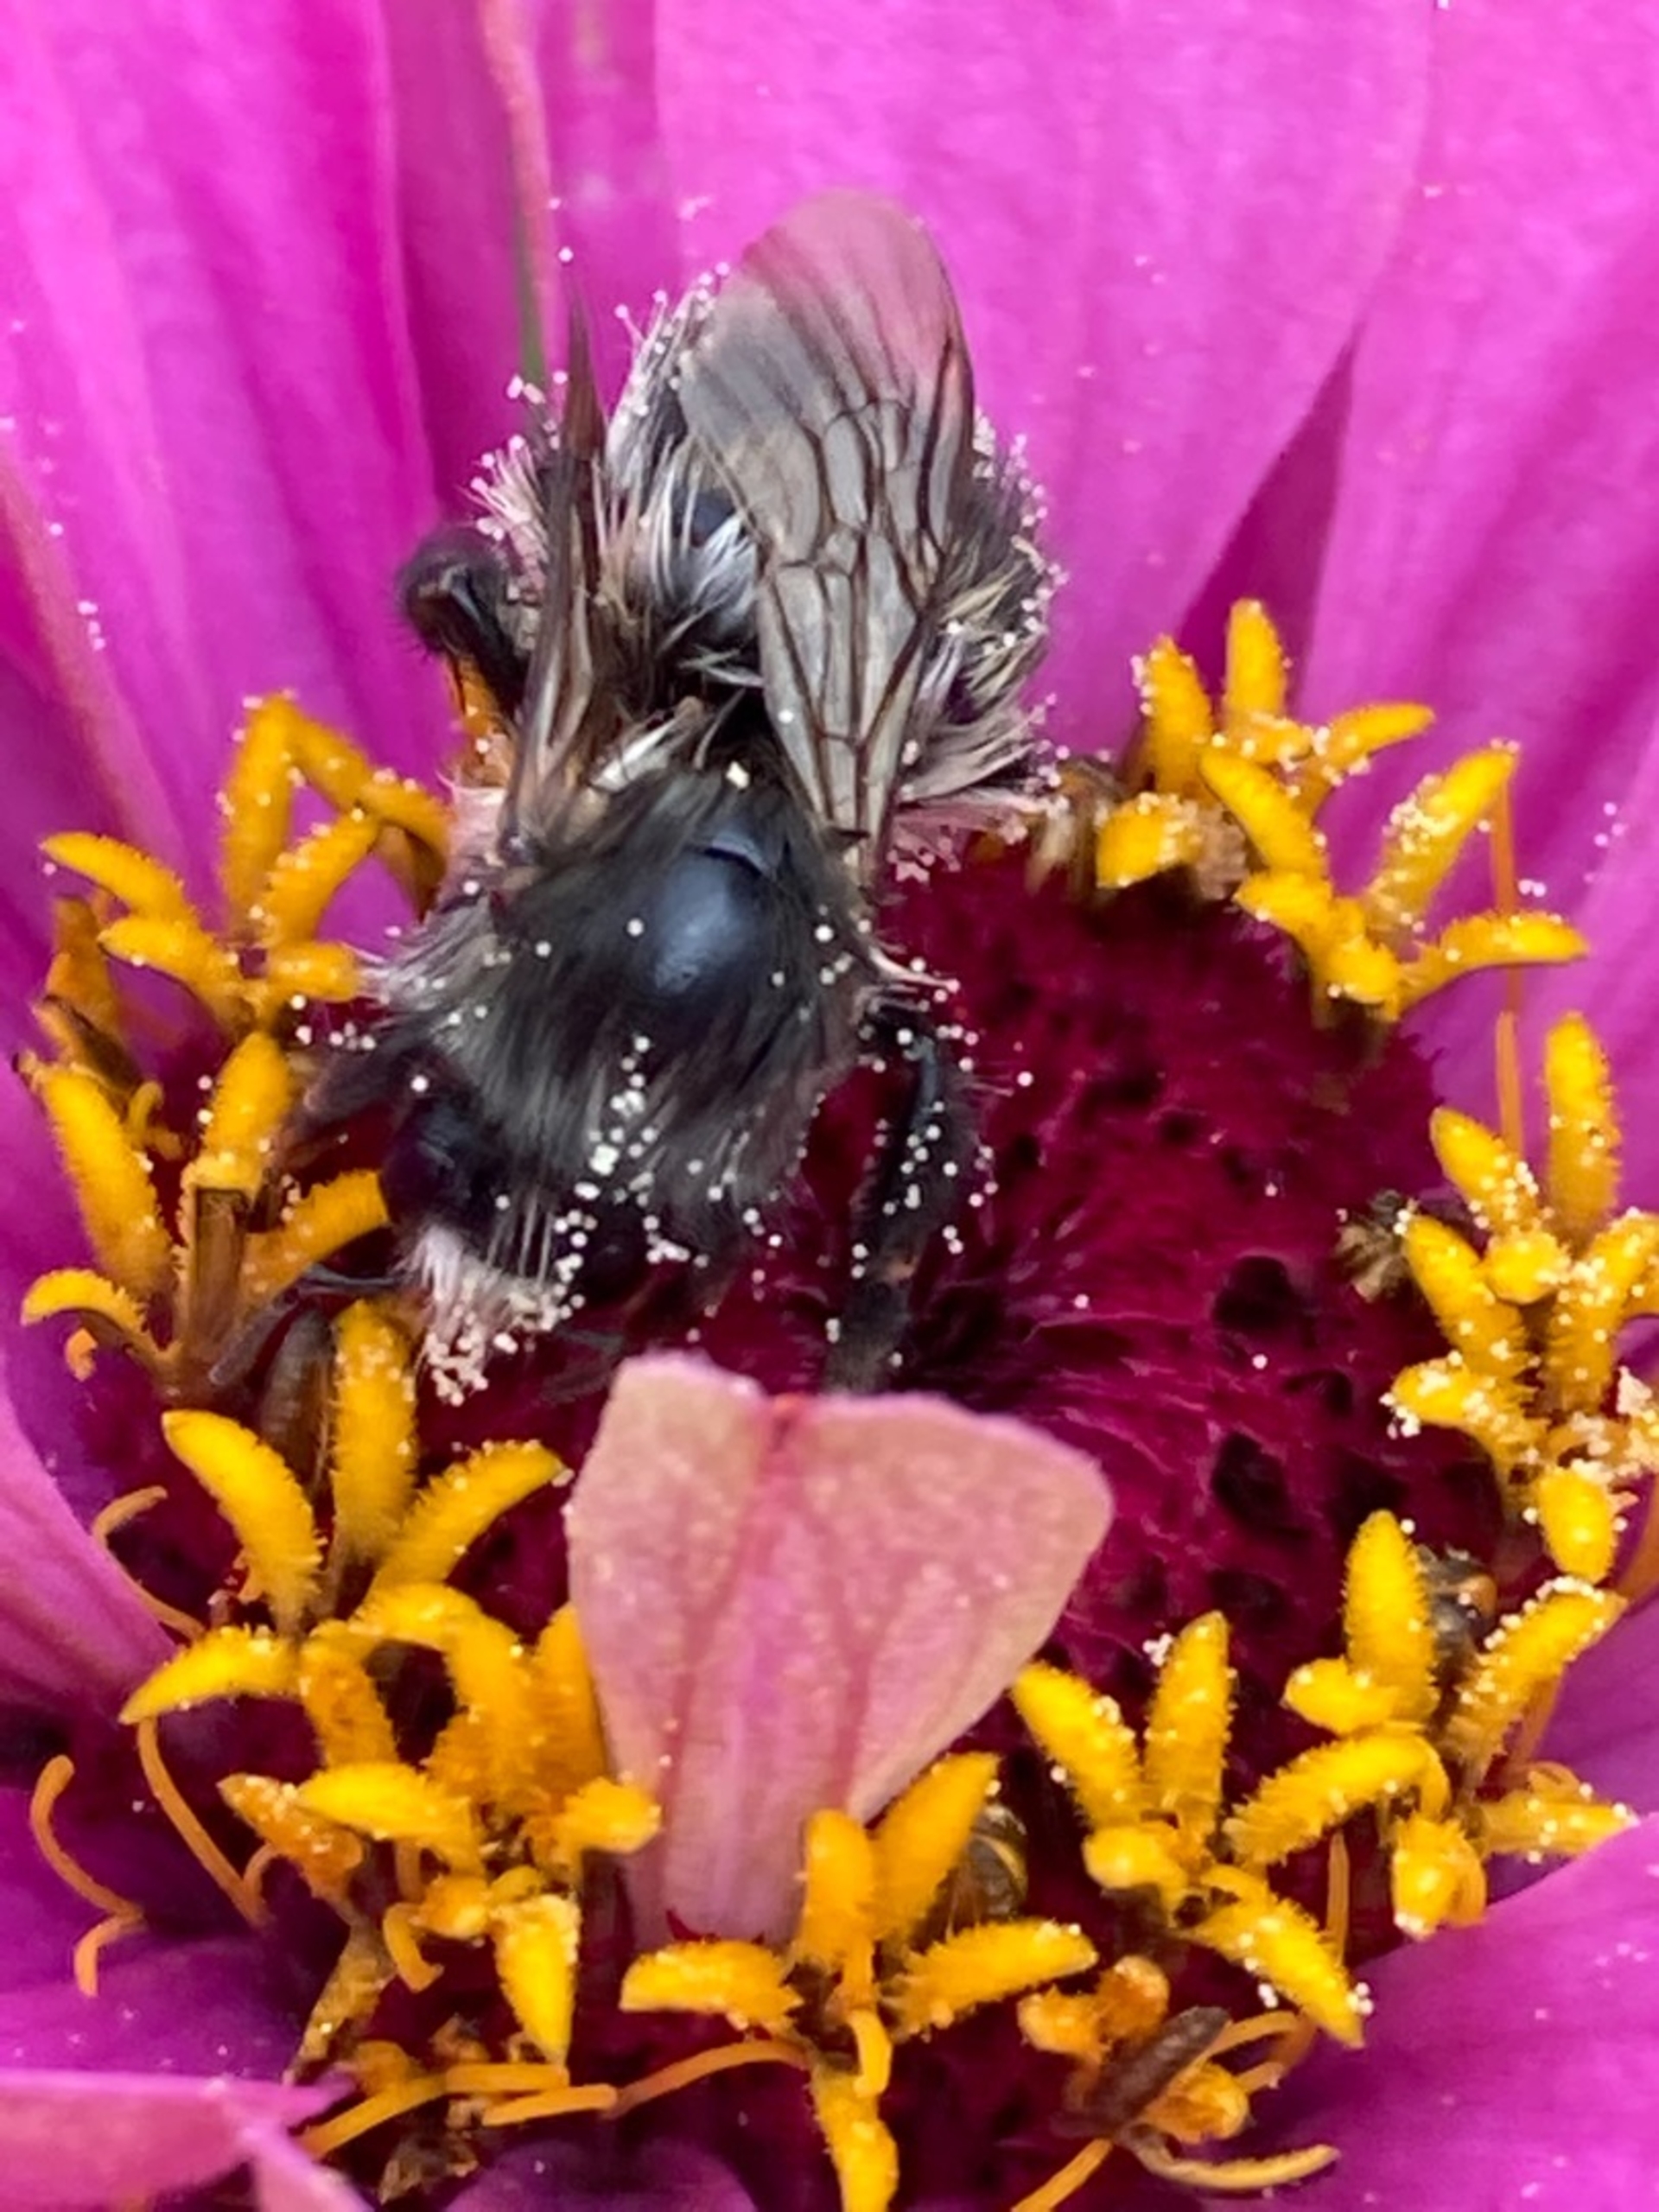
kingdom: Animalia
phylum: Arthropoda
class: Insecta
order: Hymenoptera
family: Apidae
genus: Bombus
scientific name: Bombus pascuorum
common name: Agerhumle
